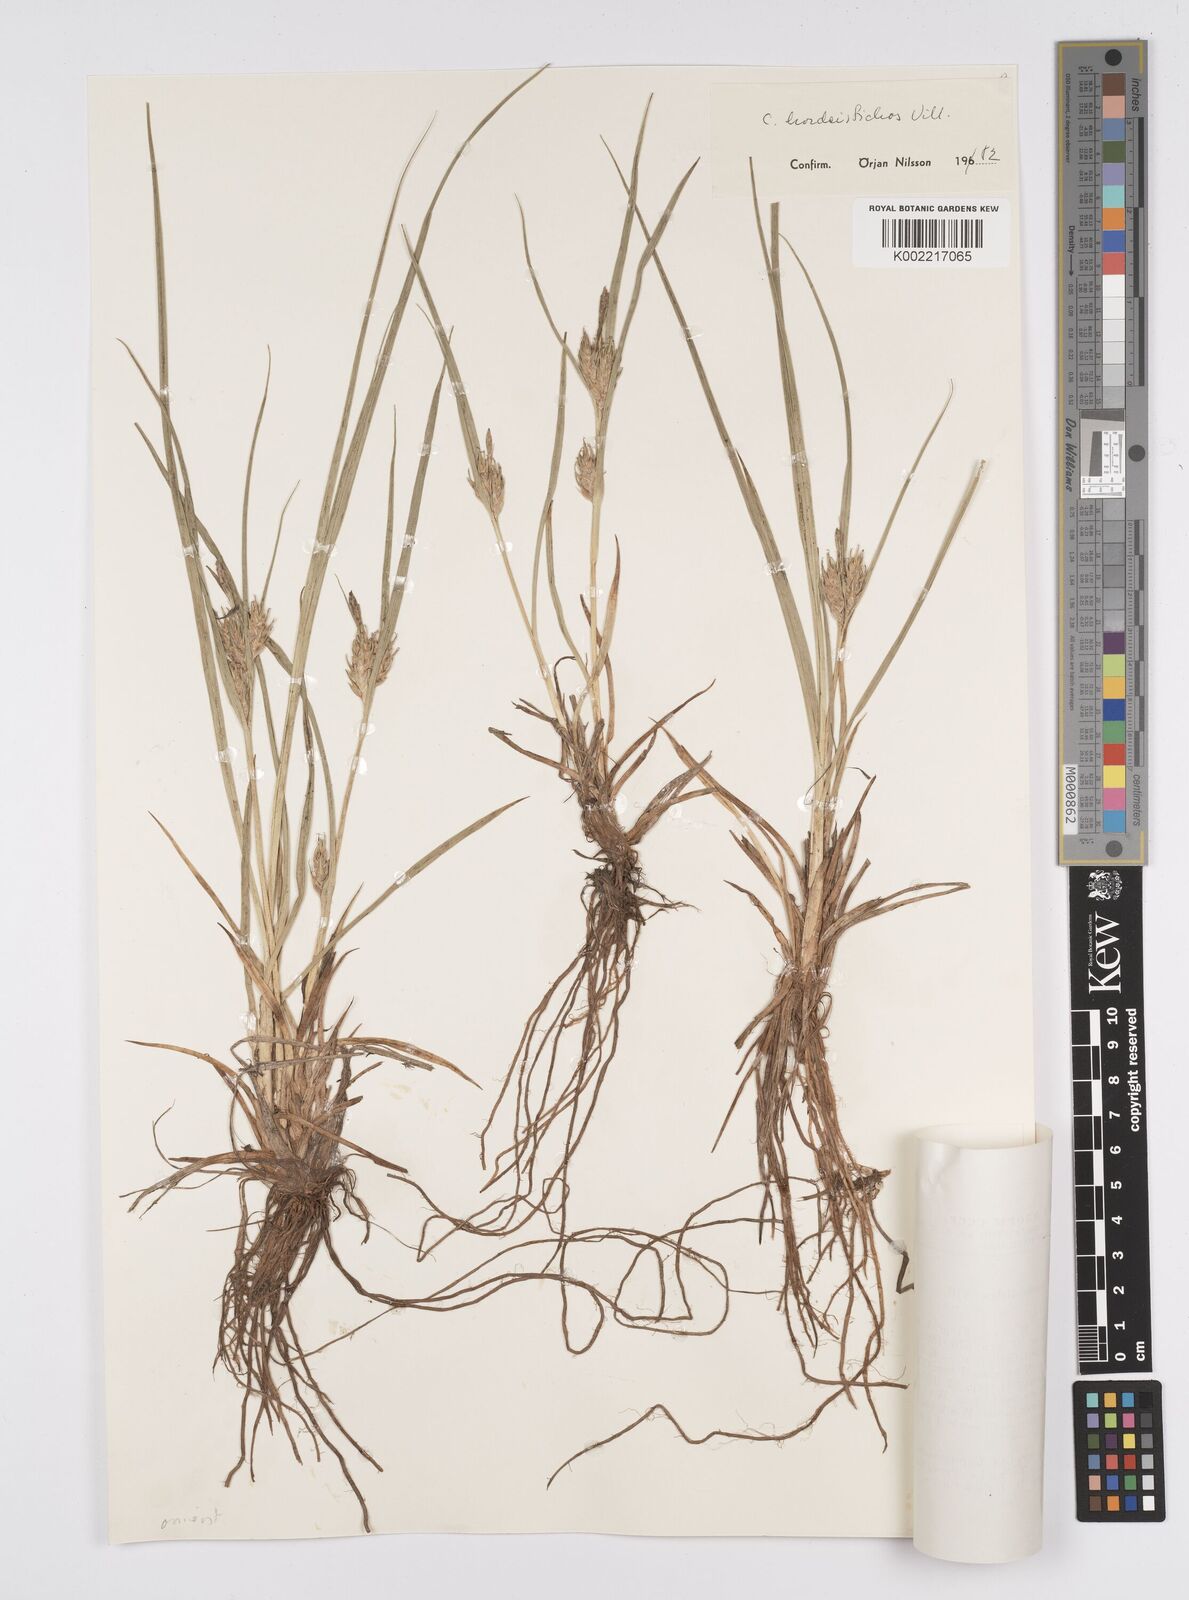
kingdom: Plantae
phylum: Tracheophyta
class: Liliopsida
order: Poales
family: Cyperaceae
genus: Carex
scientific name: Carex hordeistichos
